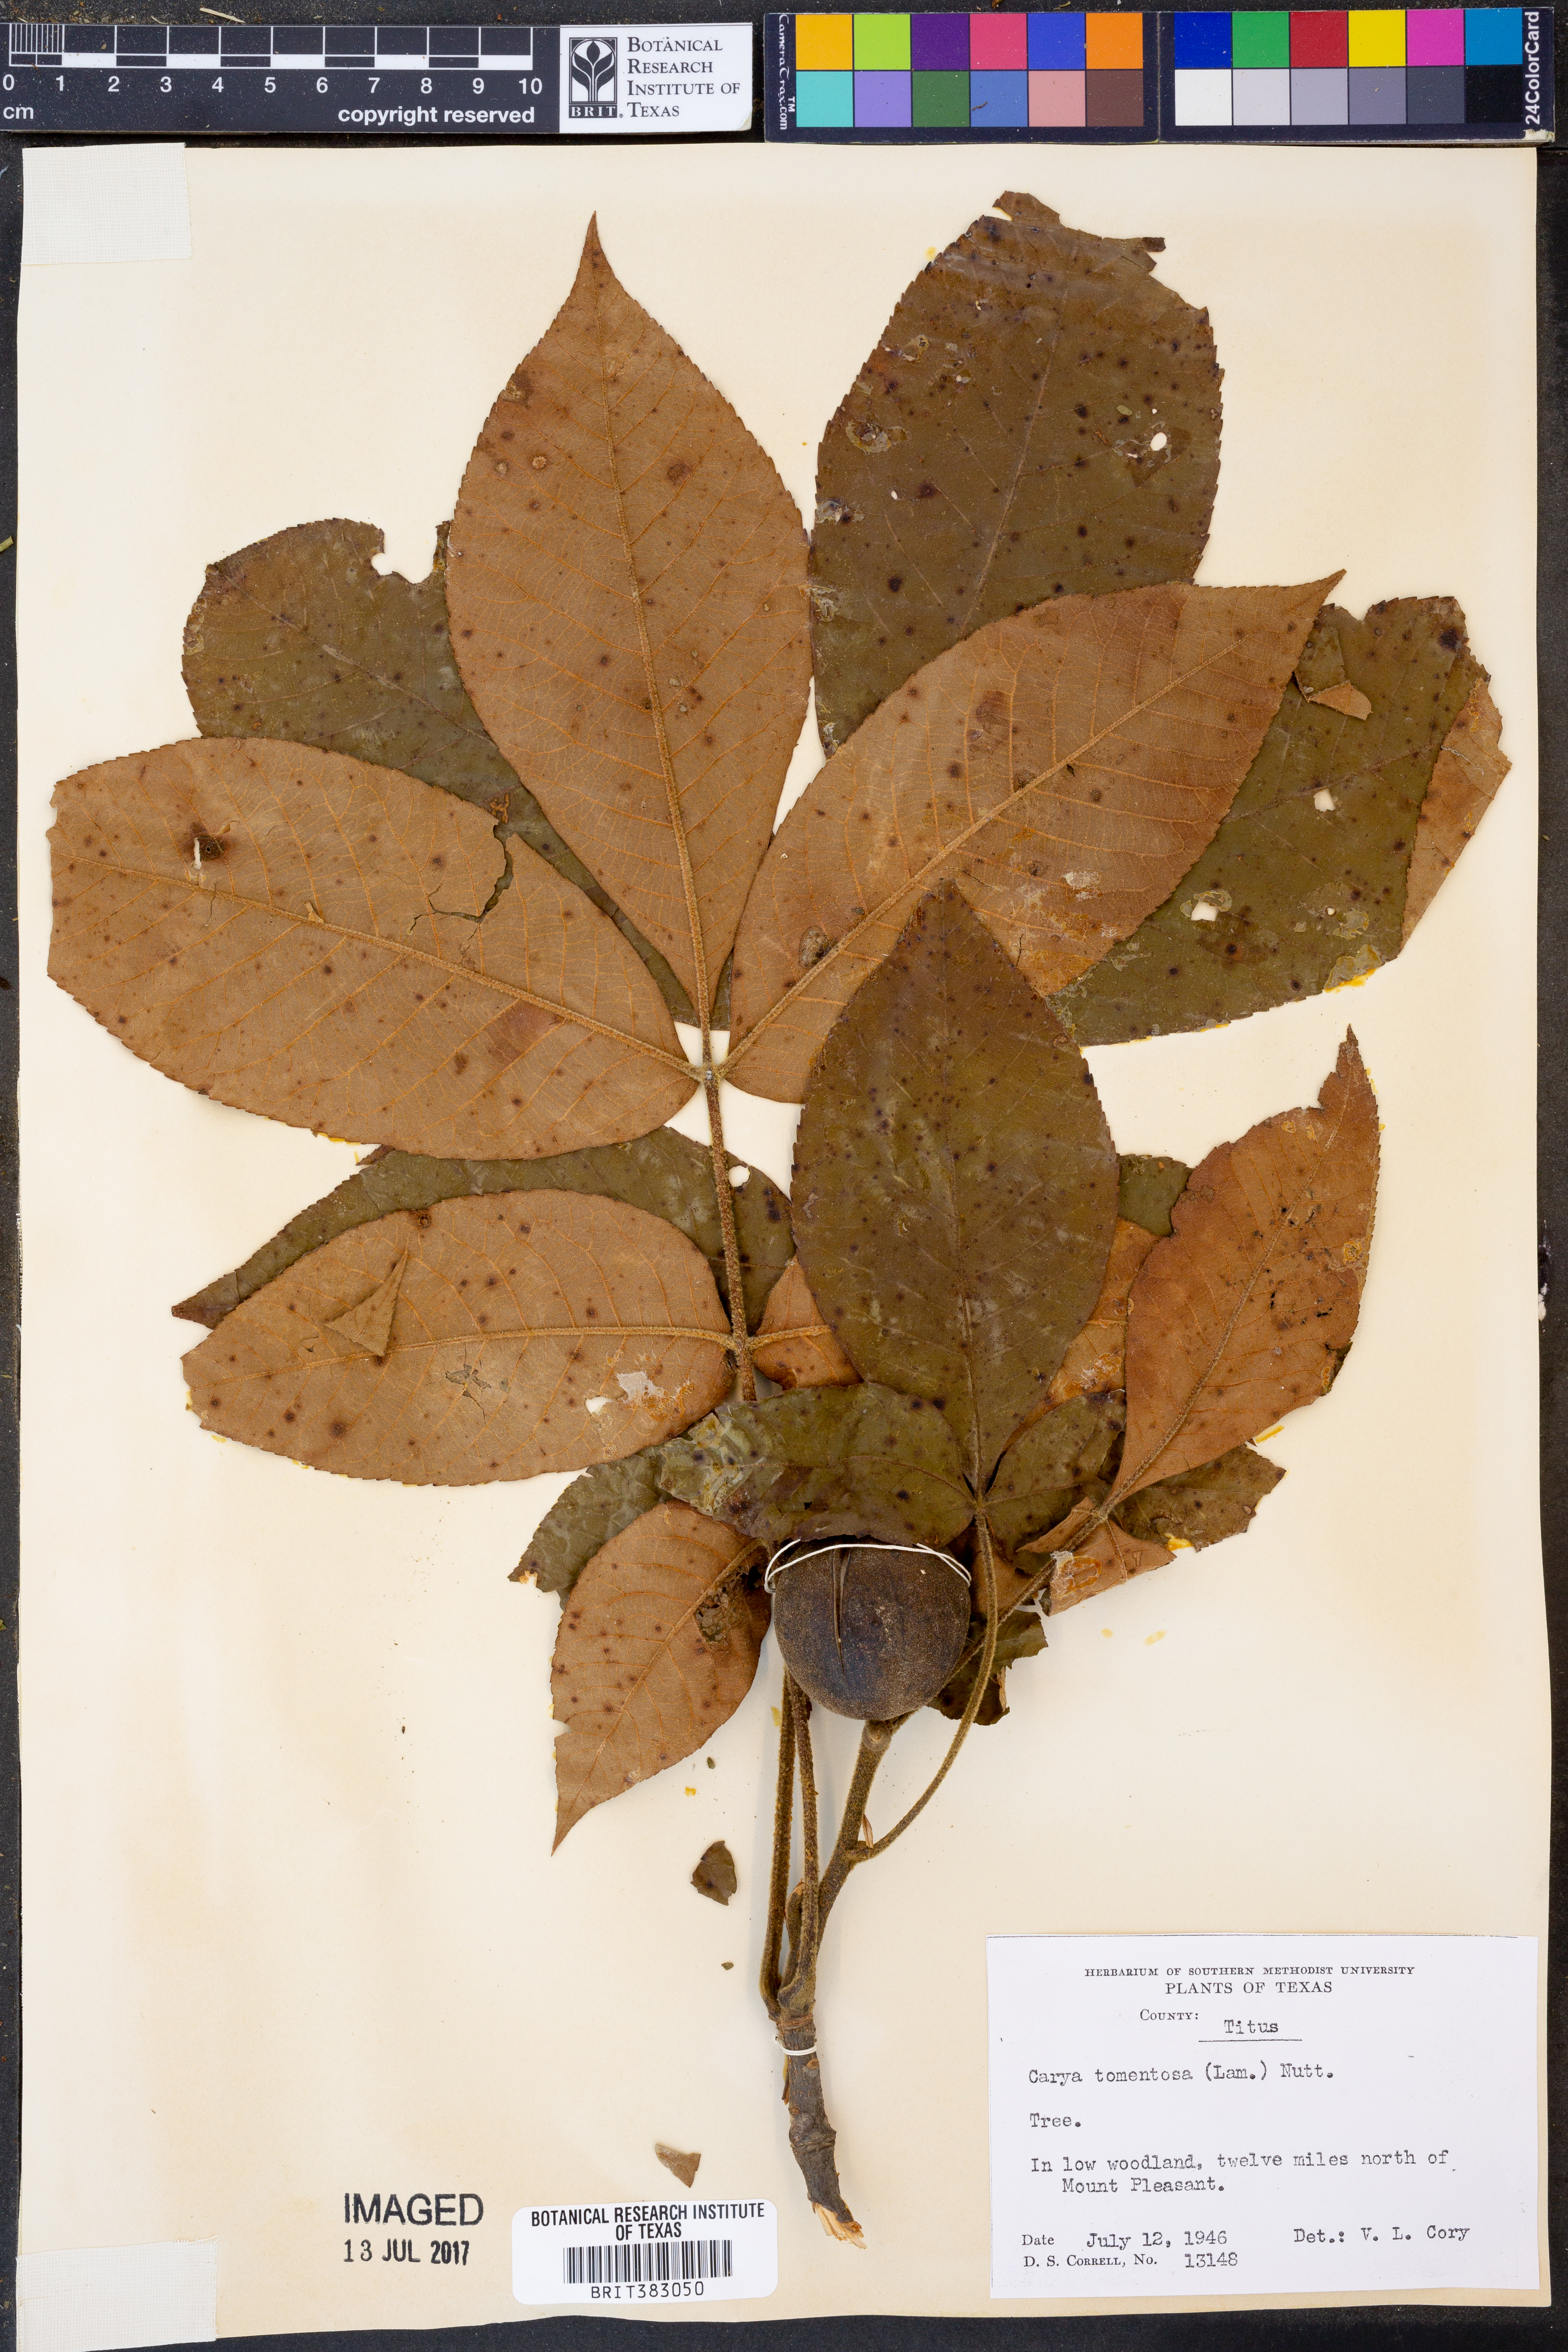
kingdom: Plantae
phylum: Tracheophyta
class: Magnoliopsida
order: Fagales
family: Juglandaceae
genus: Carya
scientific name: Carya alba
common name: Mockernut hickory
